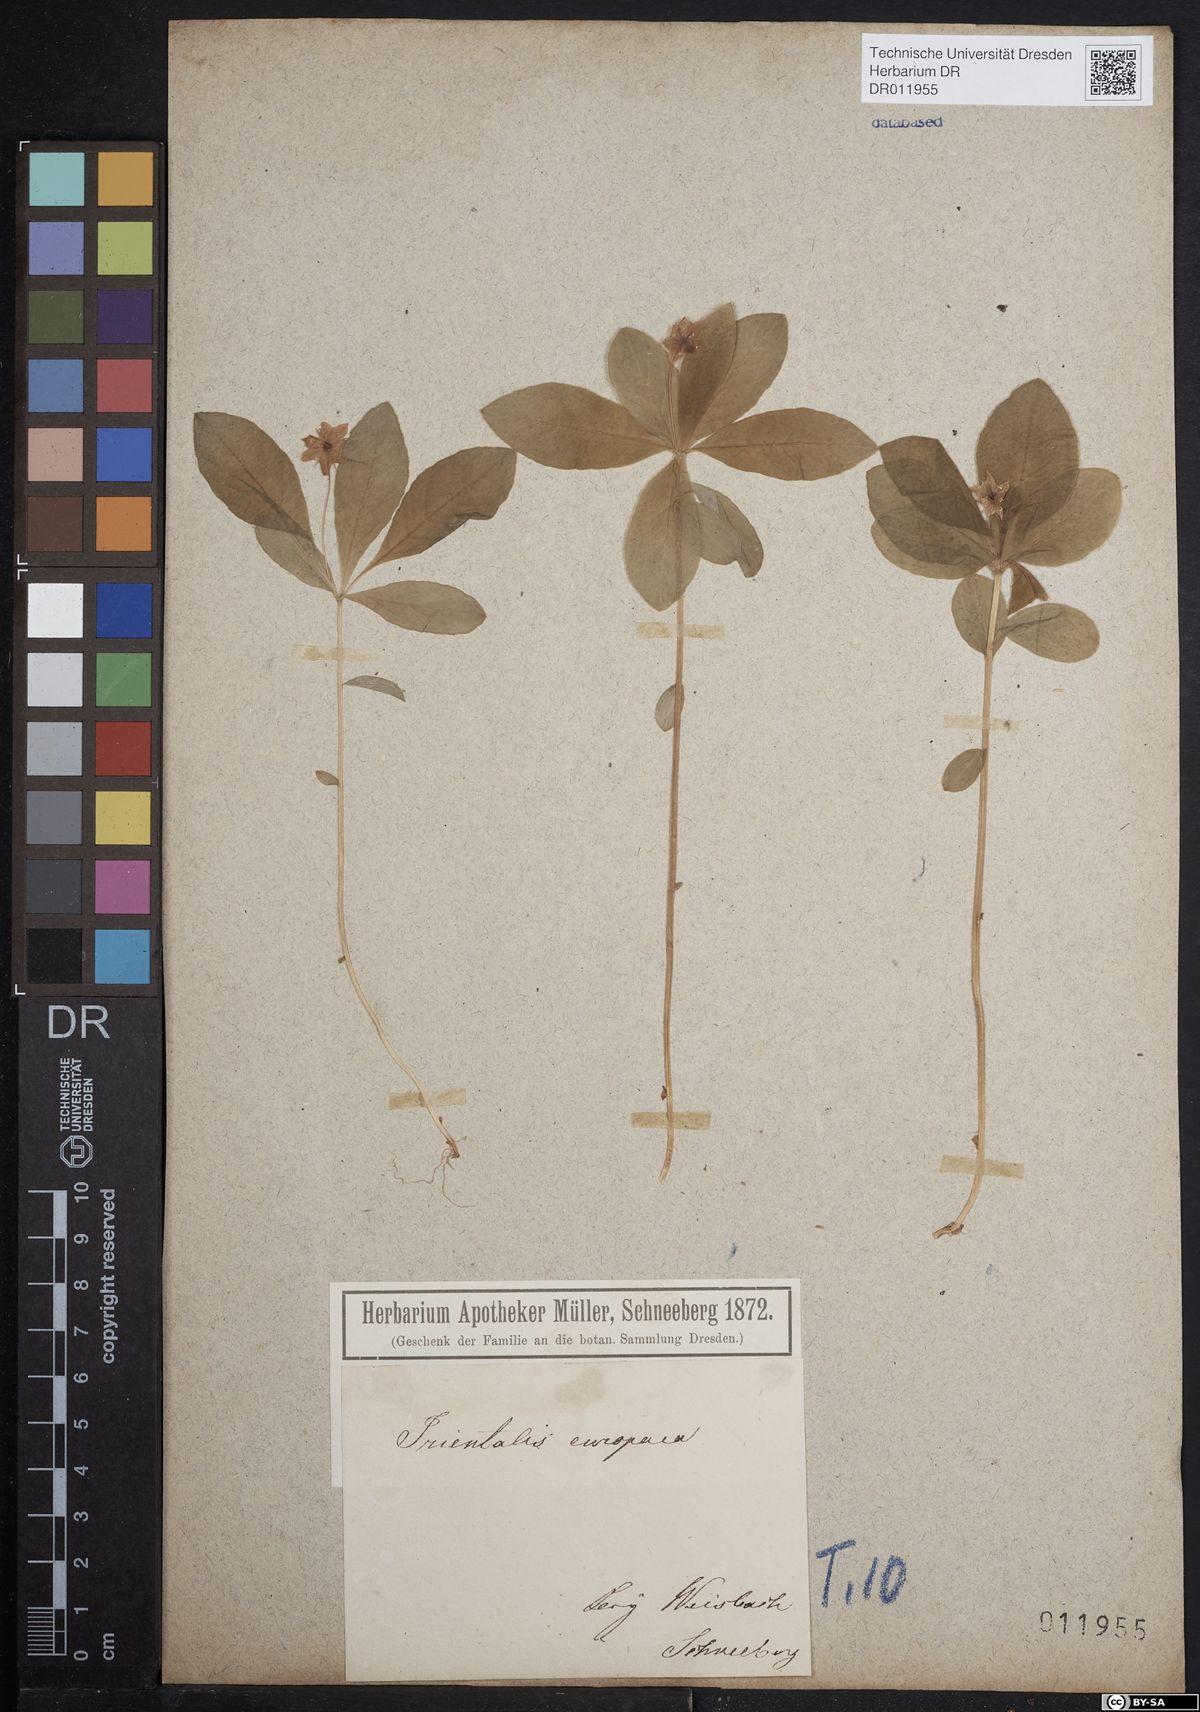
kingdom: Plantae
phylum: Tracheophyta
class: Magnoliopsida
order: Ericales
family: Primulaceae
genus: Lysimachia
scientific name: Lysimachia europaea
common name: Arctic starflower
